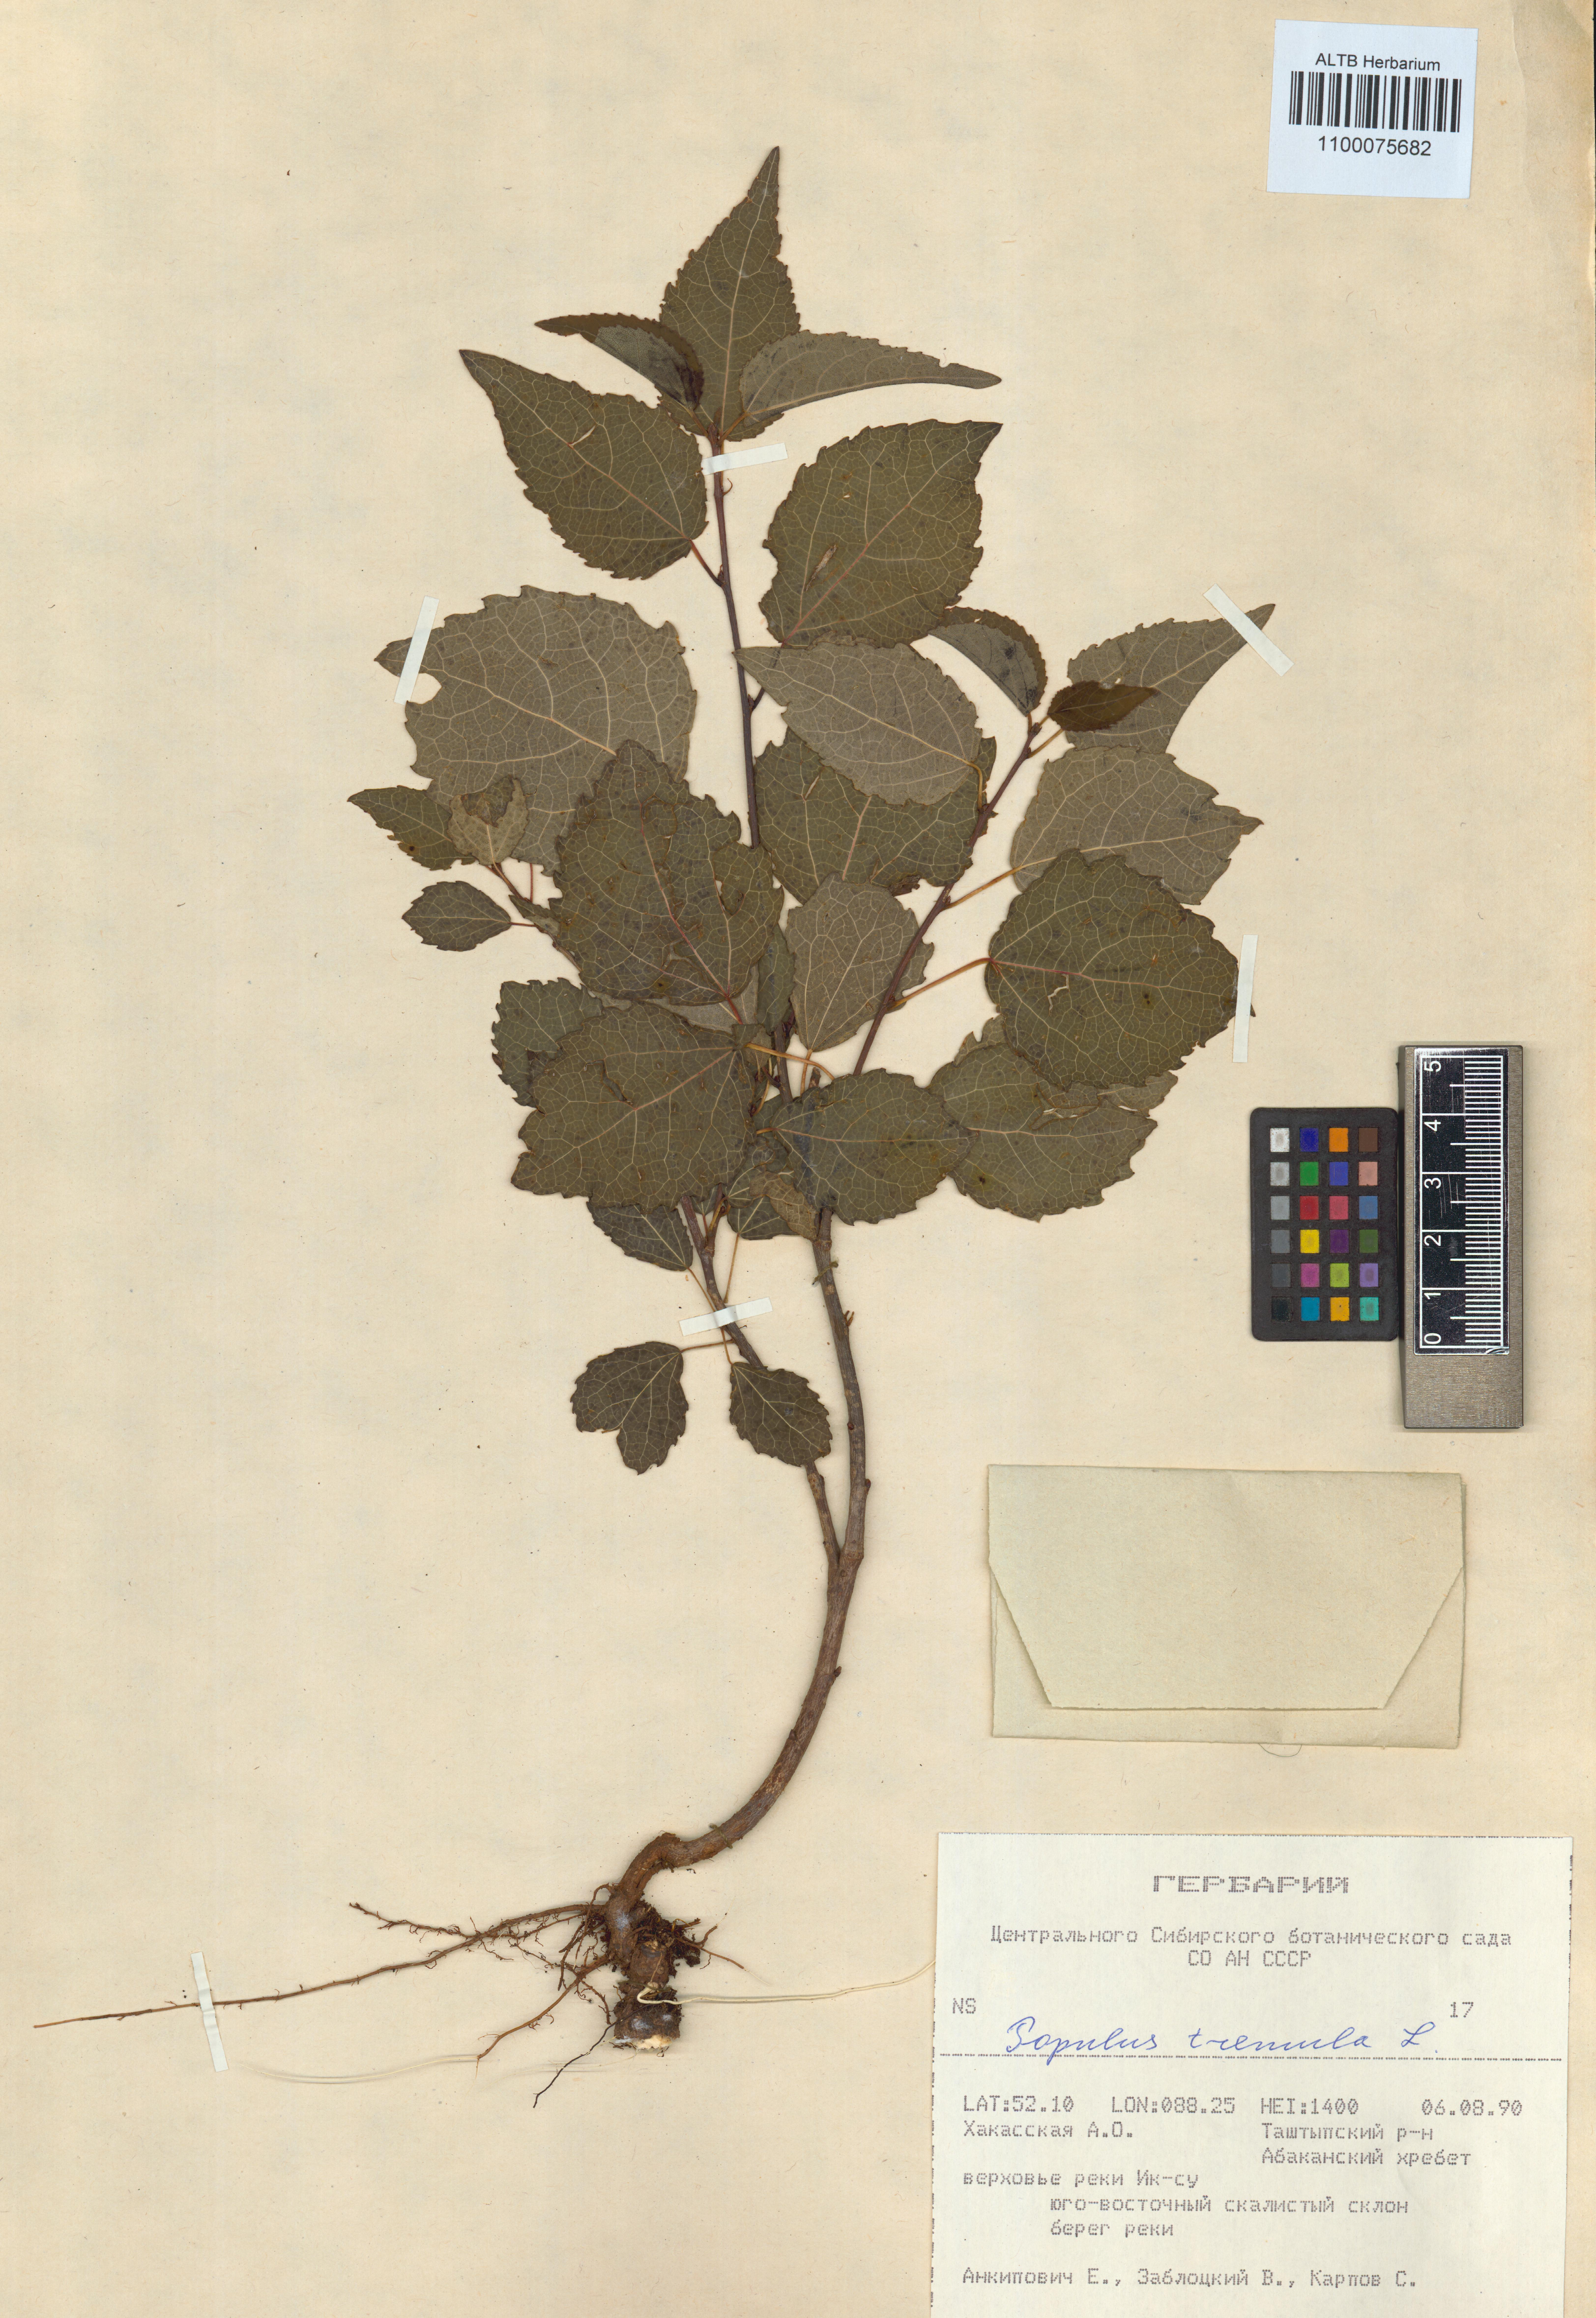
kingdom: Plantae
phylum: Tracheophyta
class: Magnoliopsida
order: Malpighiales
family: Salicaceae
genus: Populus
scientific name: Populus tremula
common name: European aspen
